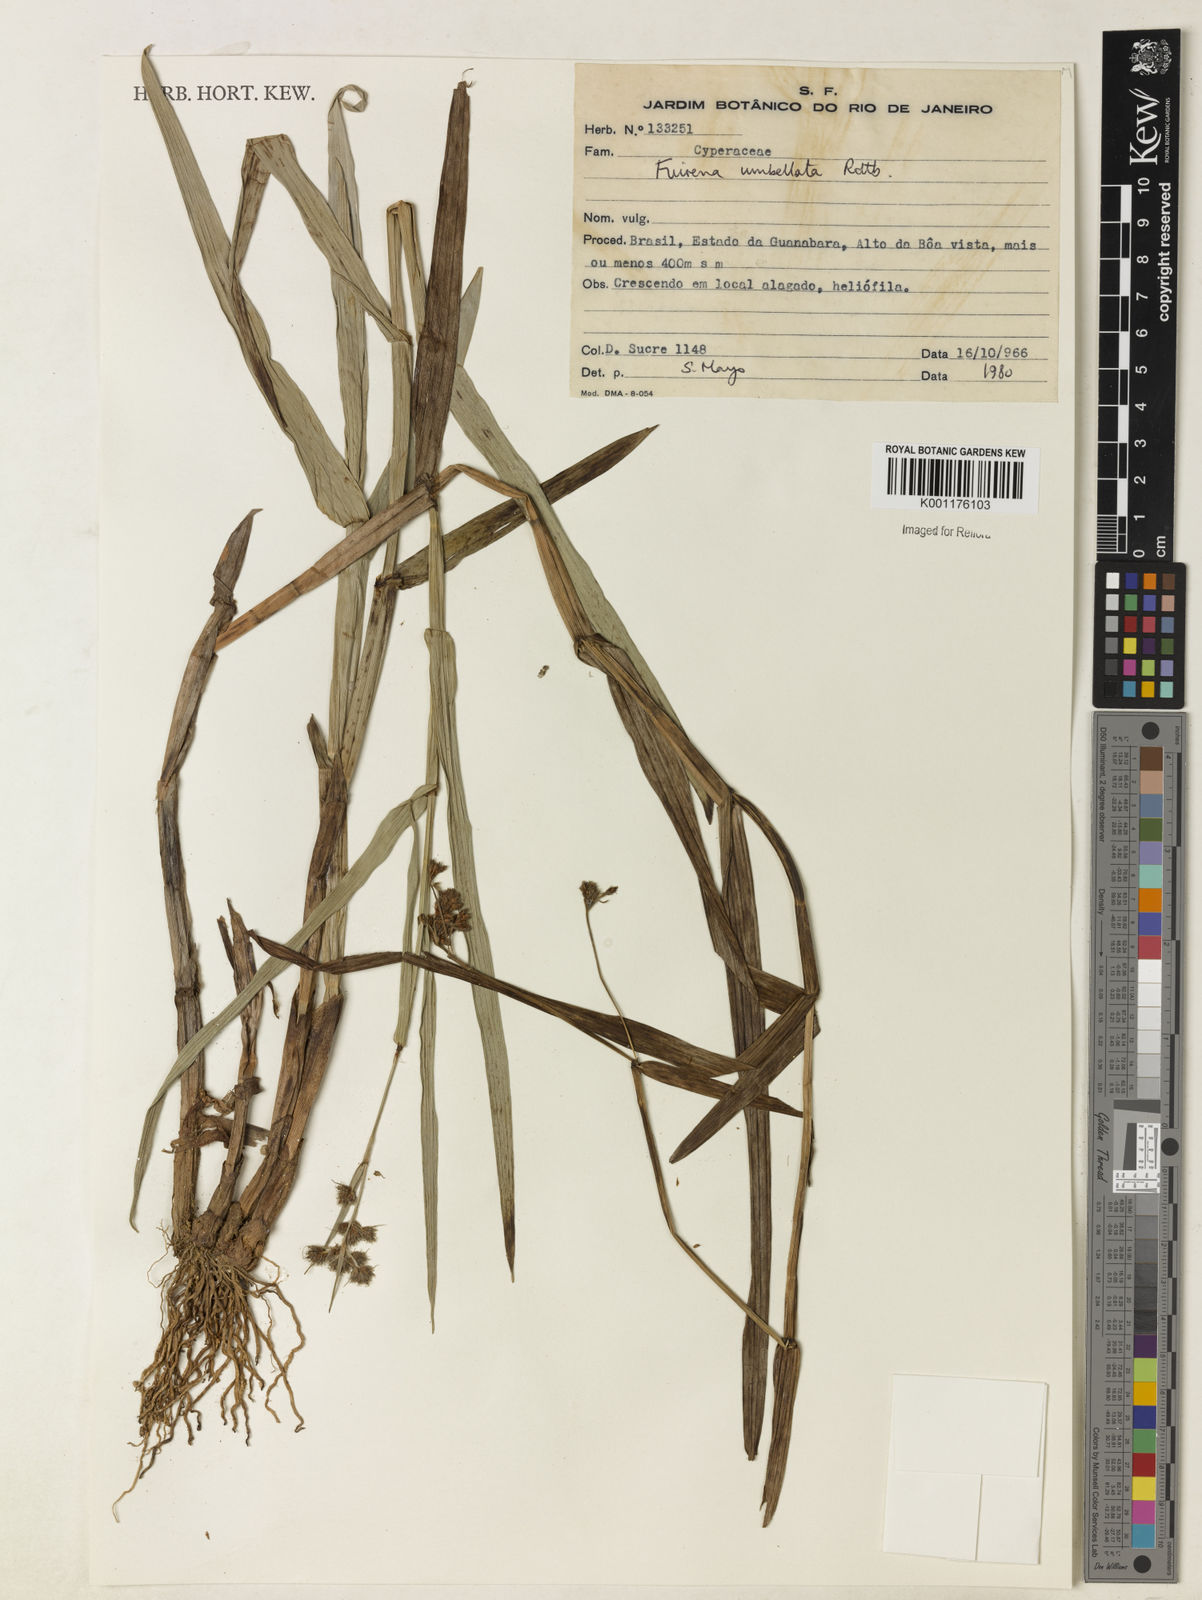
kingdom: Plantae
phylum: Tracheophyta
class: Liliopsida
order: Poales
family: Cyperaceae
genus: Fuirena
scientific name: Fuirena umbellata
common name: Yefen
